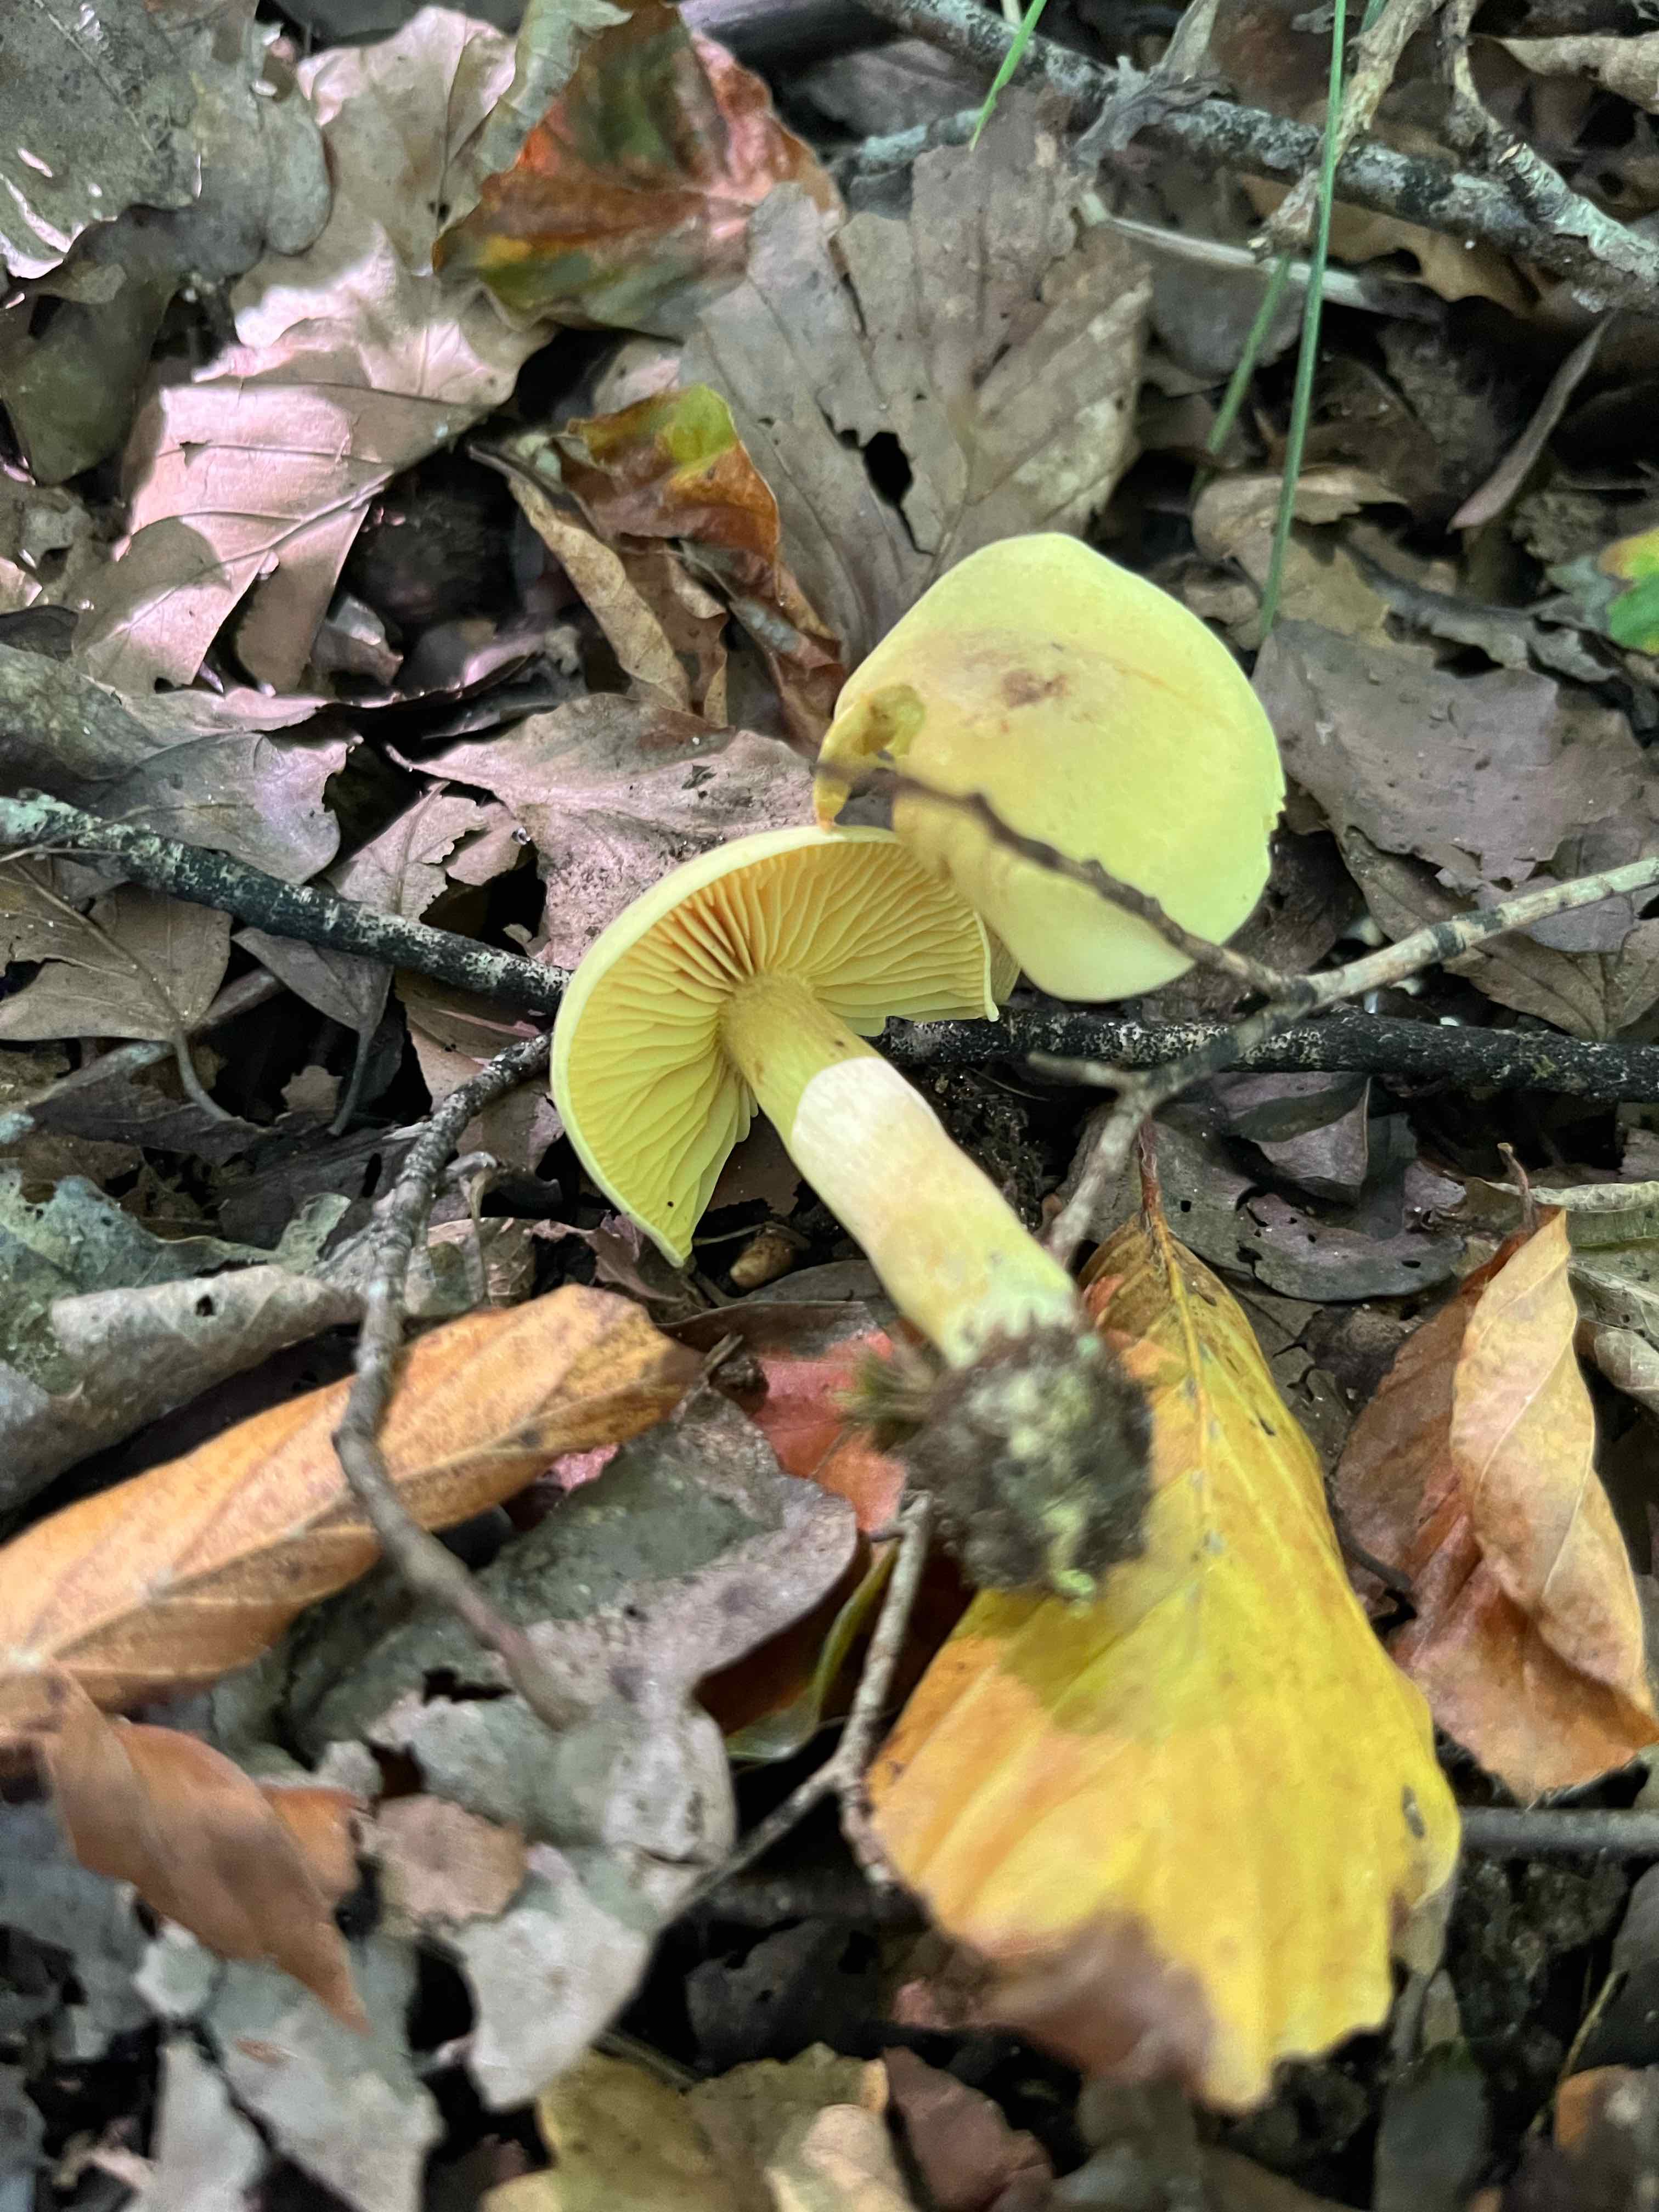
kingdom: Fungi
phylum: Basidiomycota
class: Agaricomycetes
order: Agaricales
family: Tricholomataceae
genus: Tricholoma
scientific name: Tricholoma sulphureum
